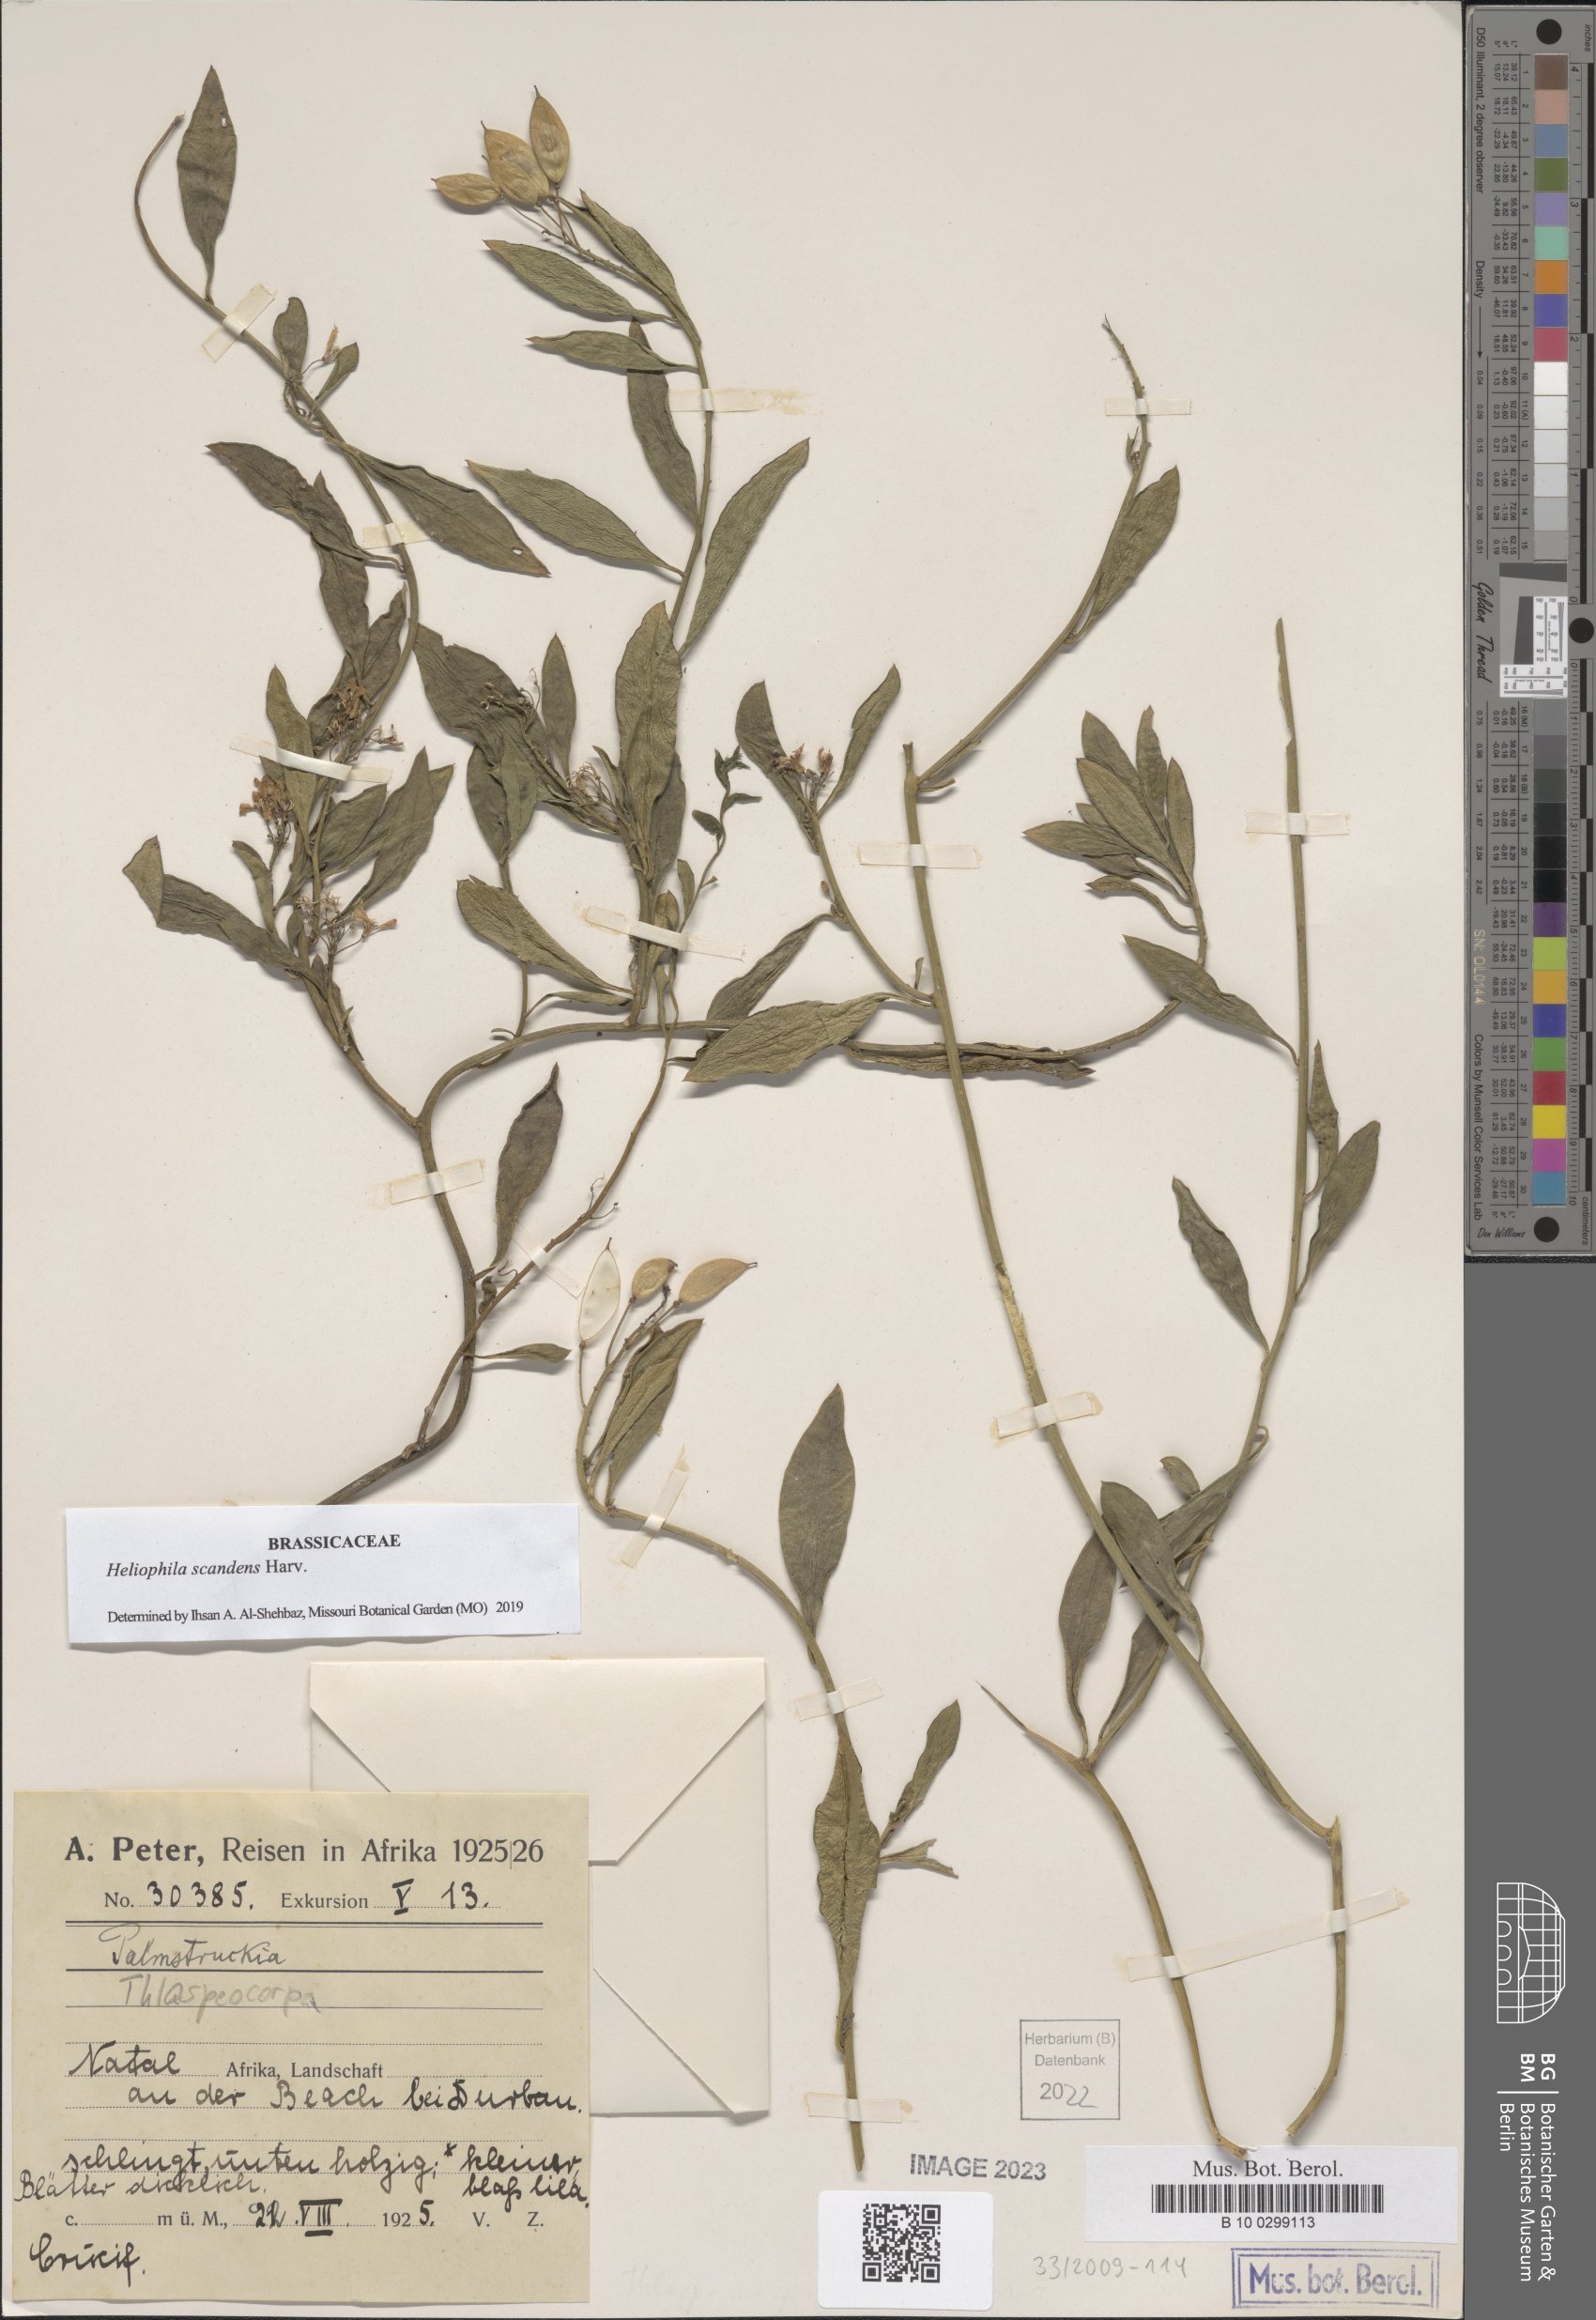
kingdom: Plantae
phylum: Tracheophyta
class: Magnoliopsida
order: Brassicales
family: Brassicaceae
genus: Heliophila
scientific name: Heliophila scandens
